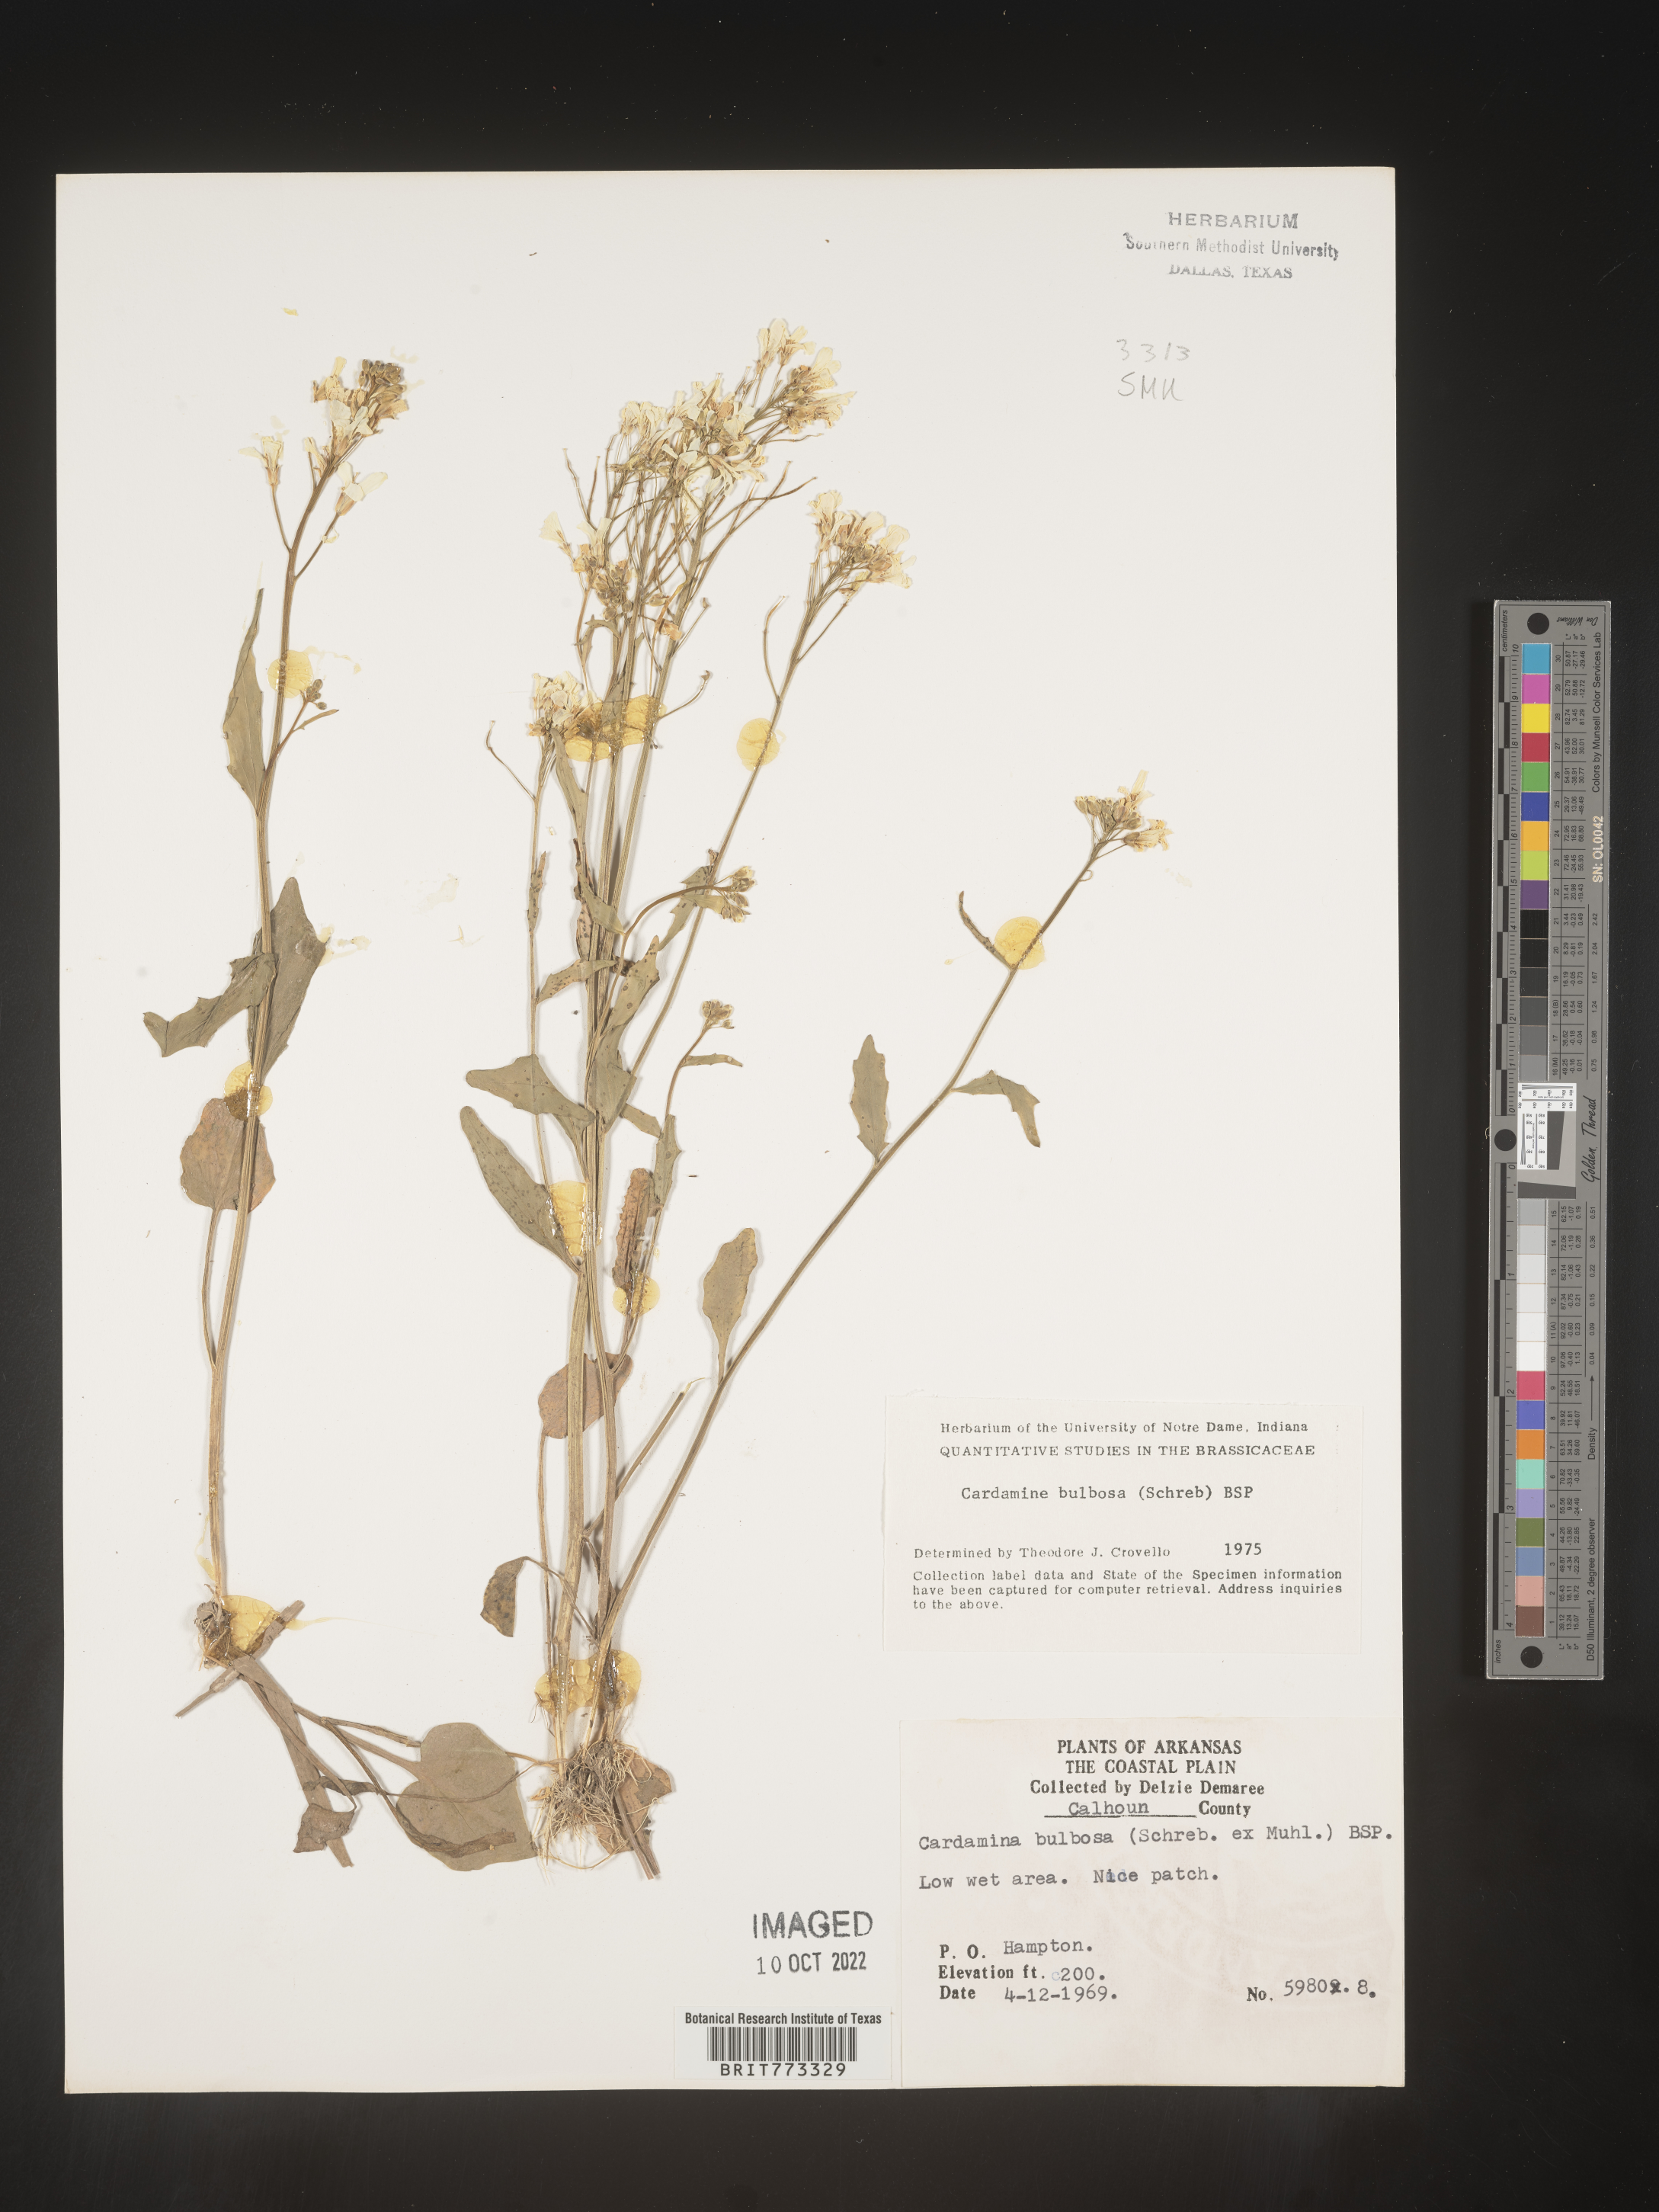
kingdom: Plantae
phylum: Tracheophyta
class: Magnoliopsida
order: Brassicales
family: Brassicaceae
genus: Cardamine
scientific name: Cardamine bulbosa
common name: Spring cress
